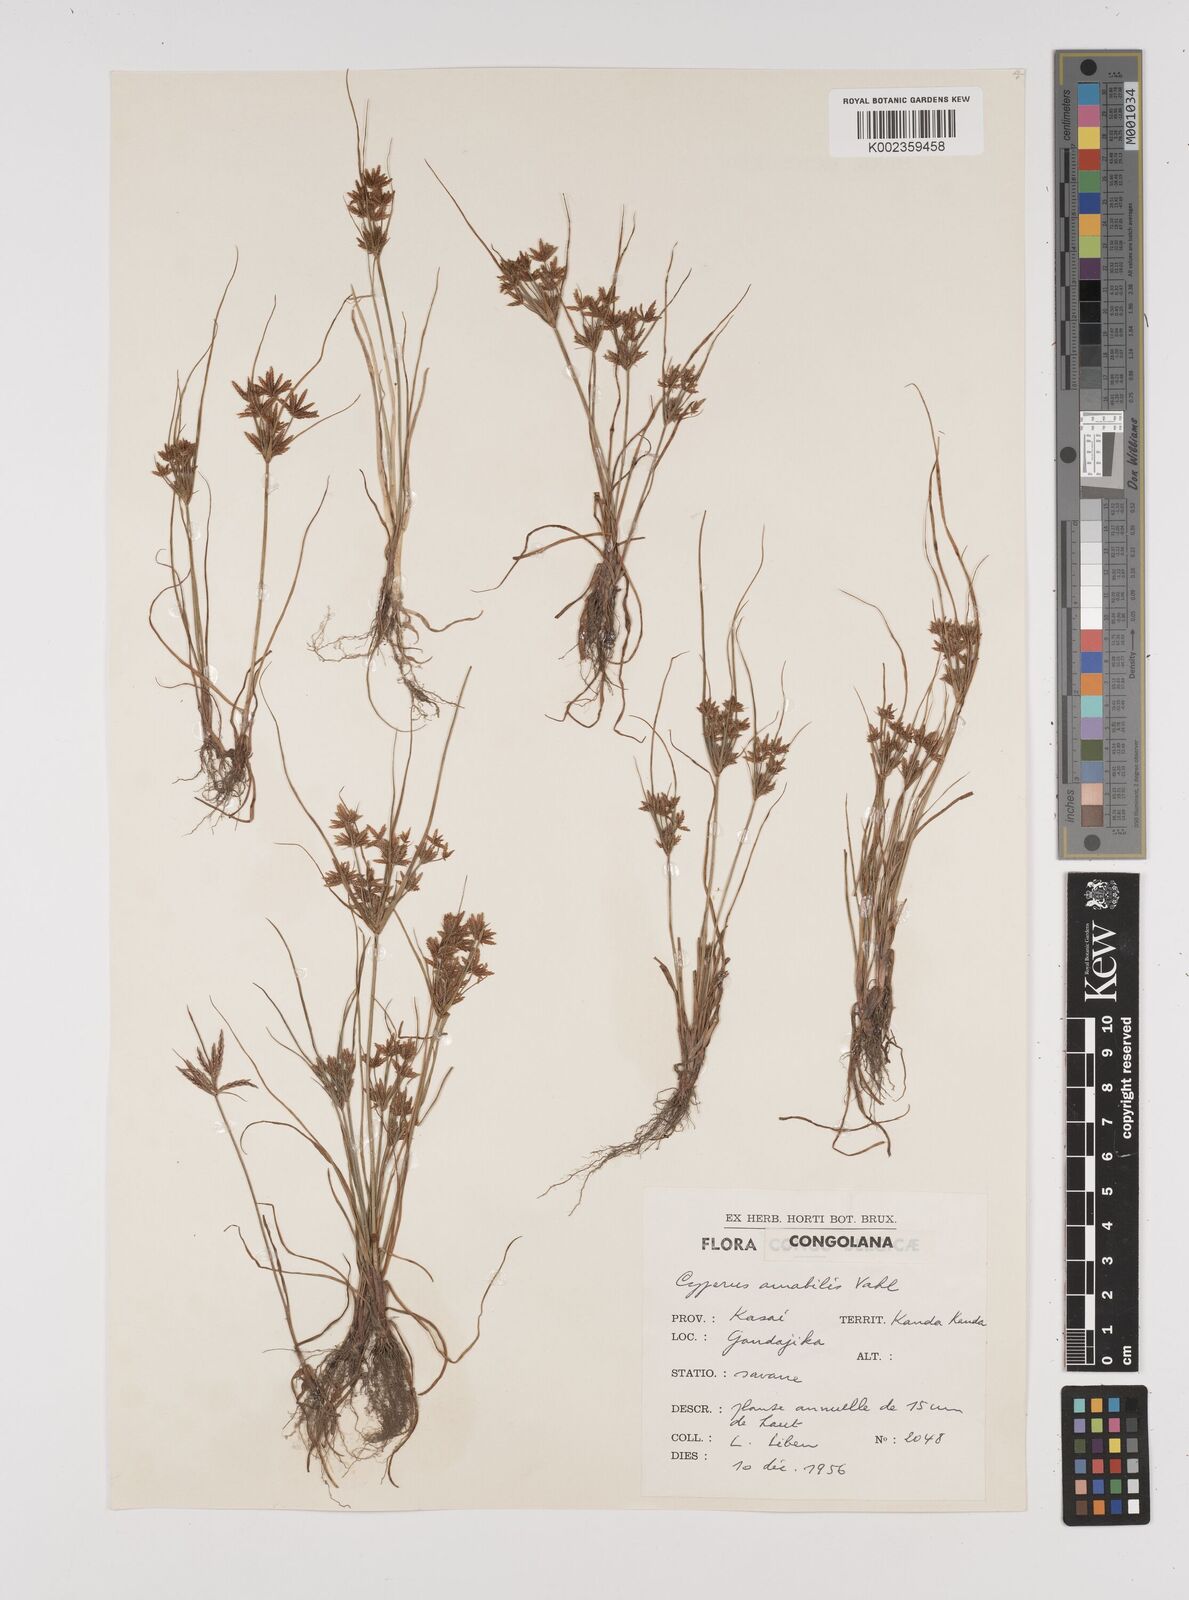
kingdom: Plantae
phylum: Tracheophyta
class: Liliopsida
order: Poales
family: Cyperaceae
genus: Cyperus
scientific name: Cyperus amabilis
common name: Foothill flat sedge
